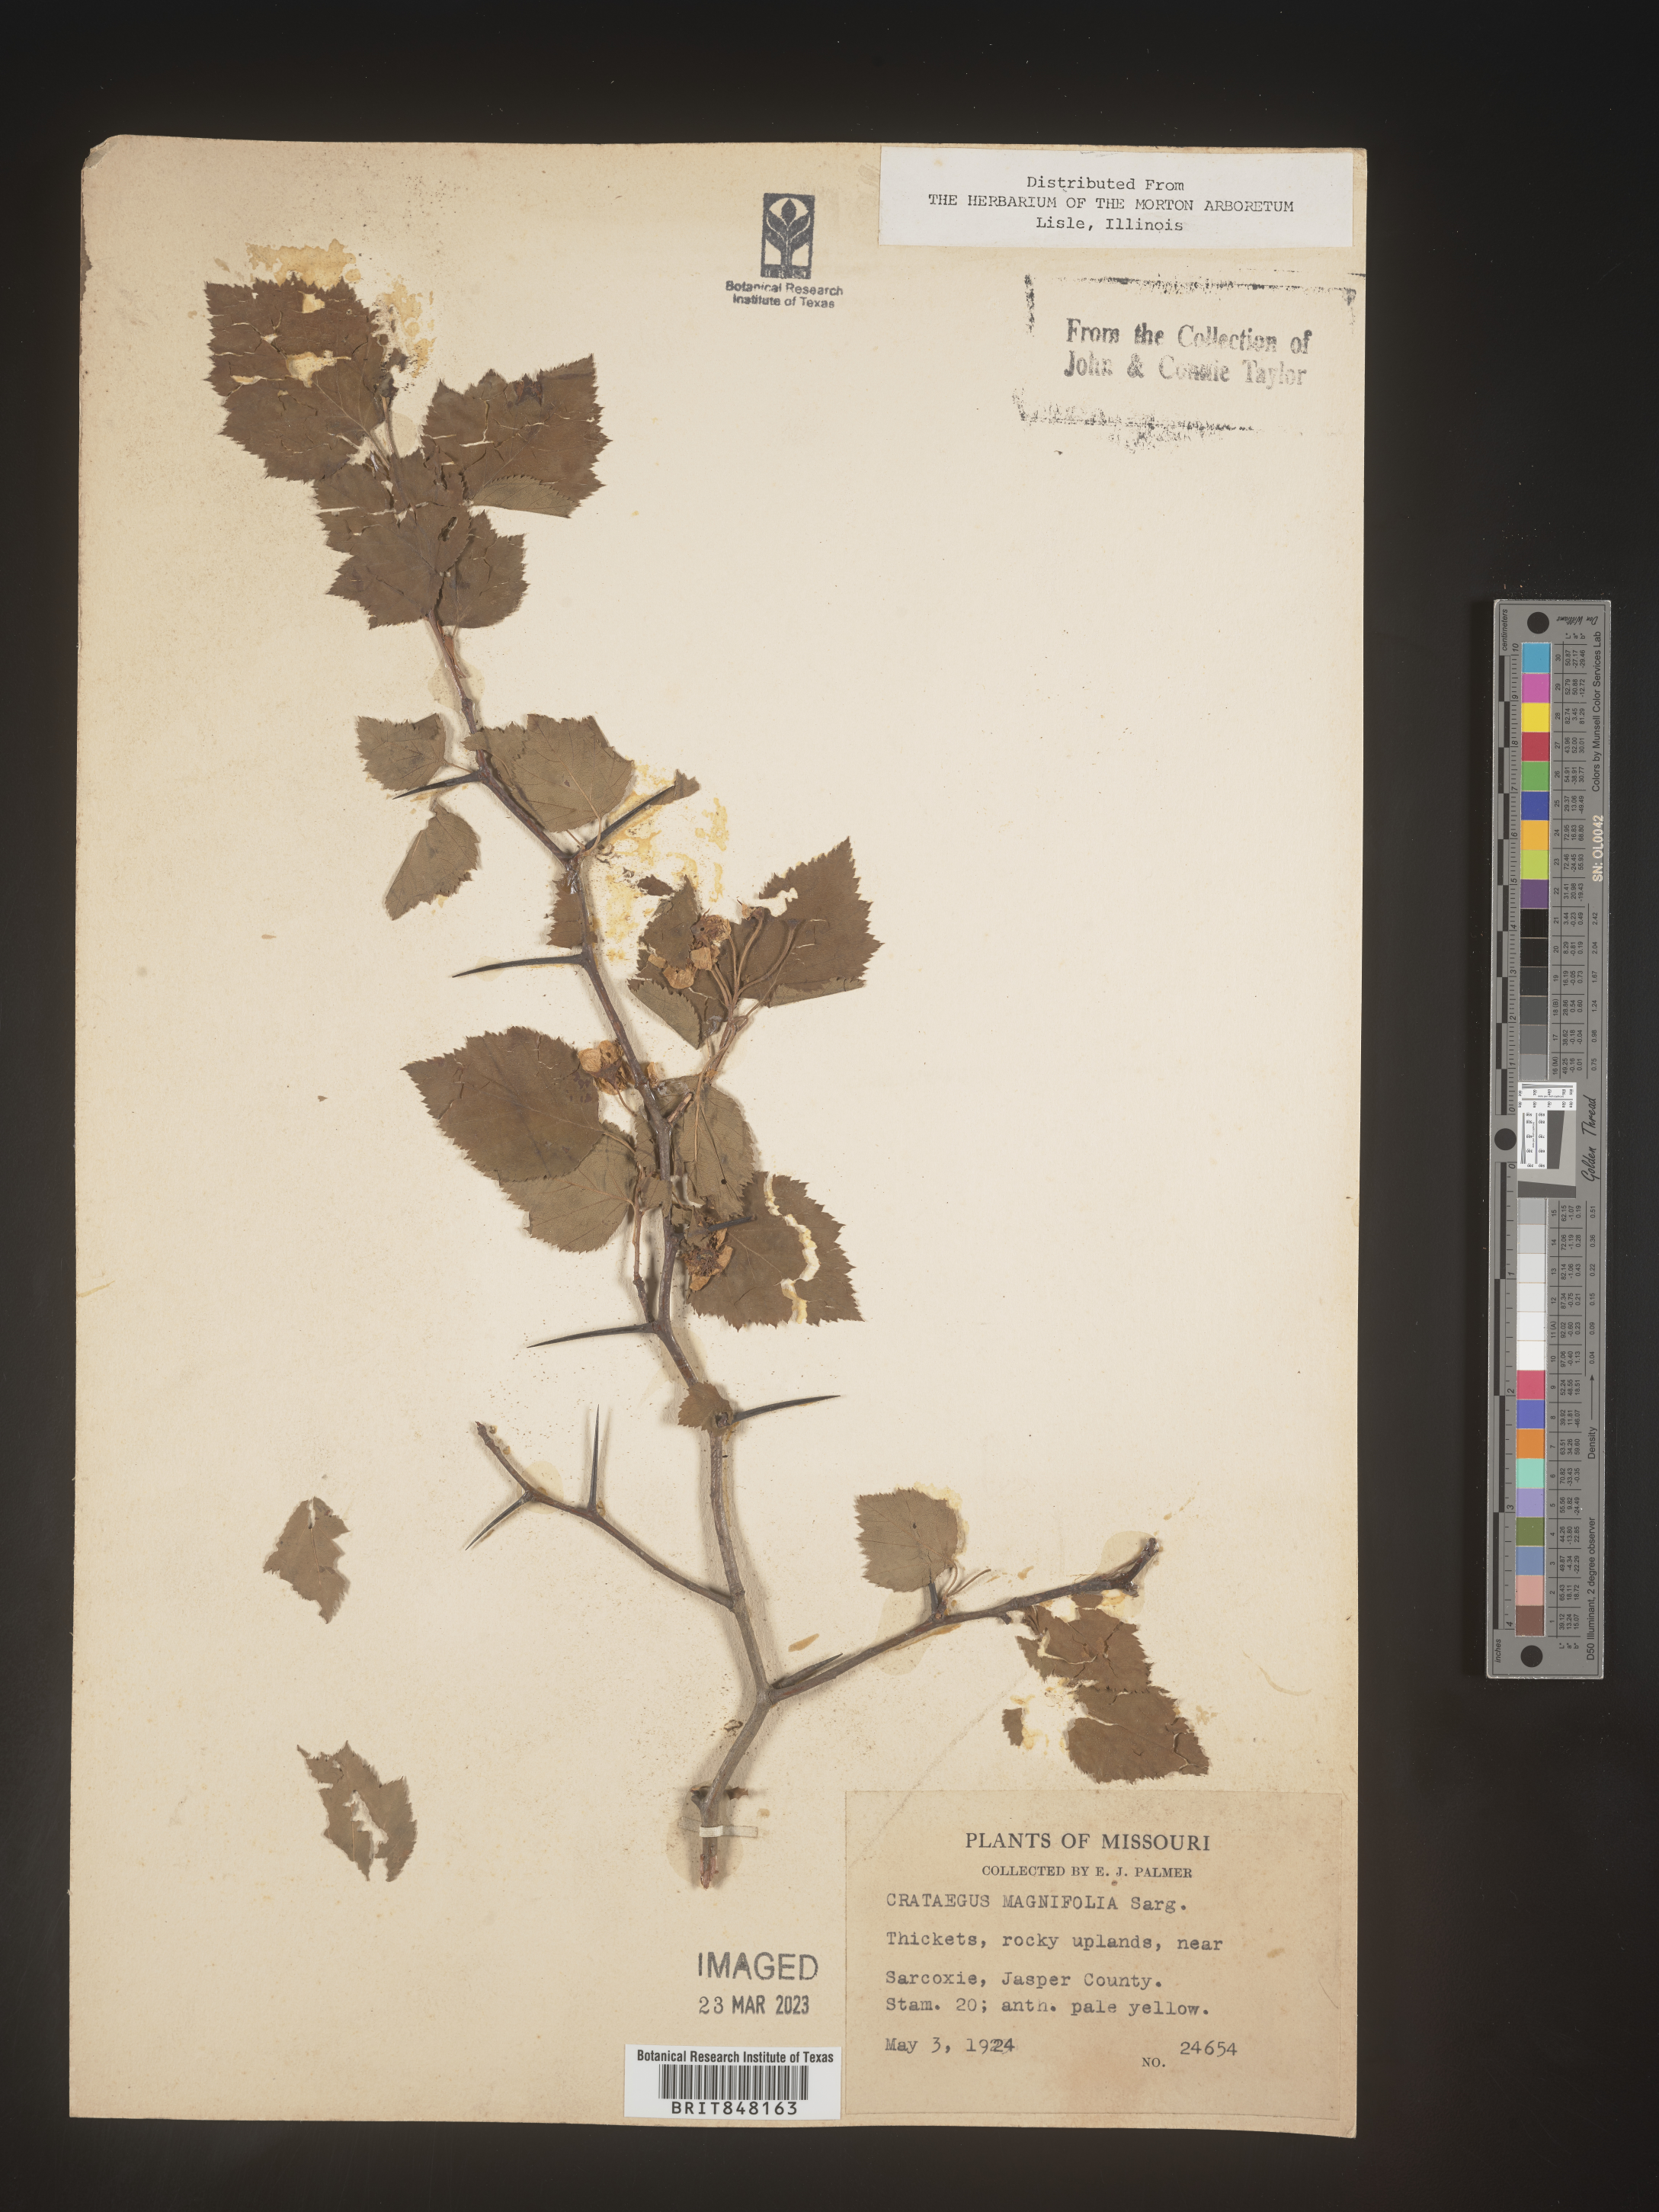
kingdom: Plantae
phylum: Tracheophyta
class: Magnoliopsida
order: Rosales
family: Rosaceae
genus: Crataegus
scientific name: Crataegus pruinosa
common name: Waxy-fruit hawthorn
